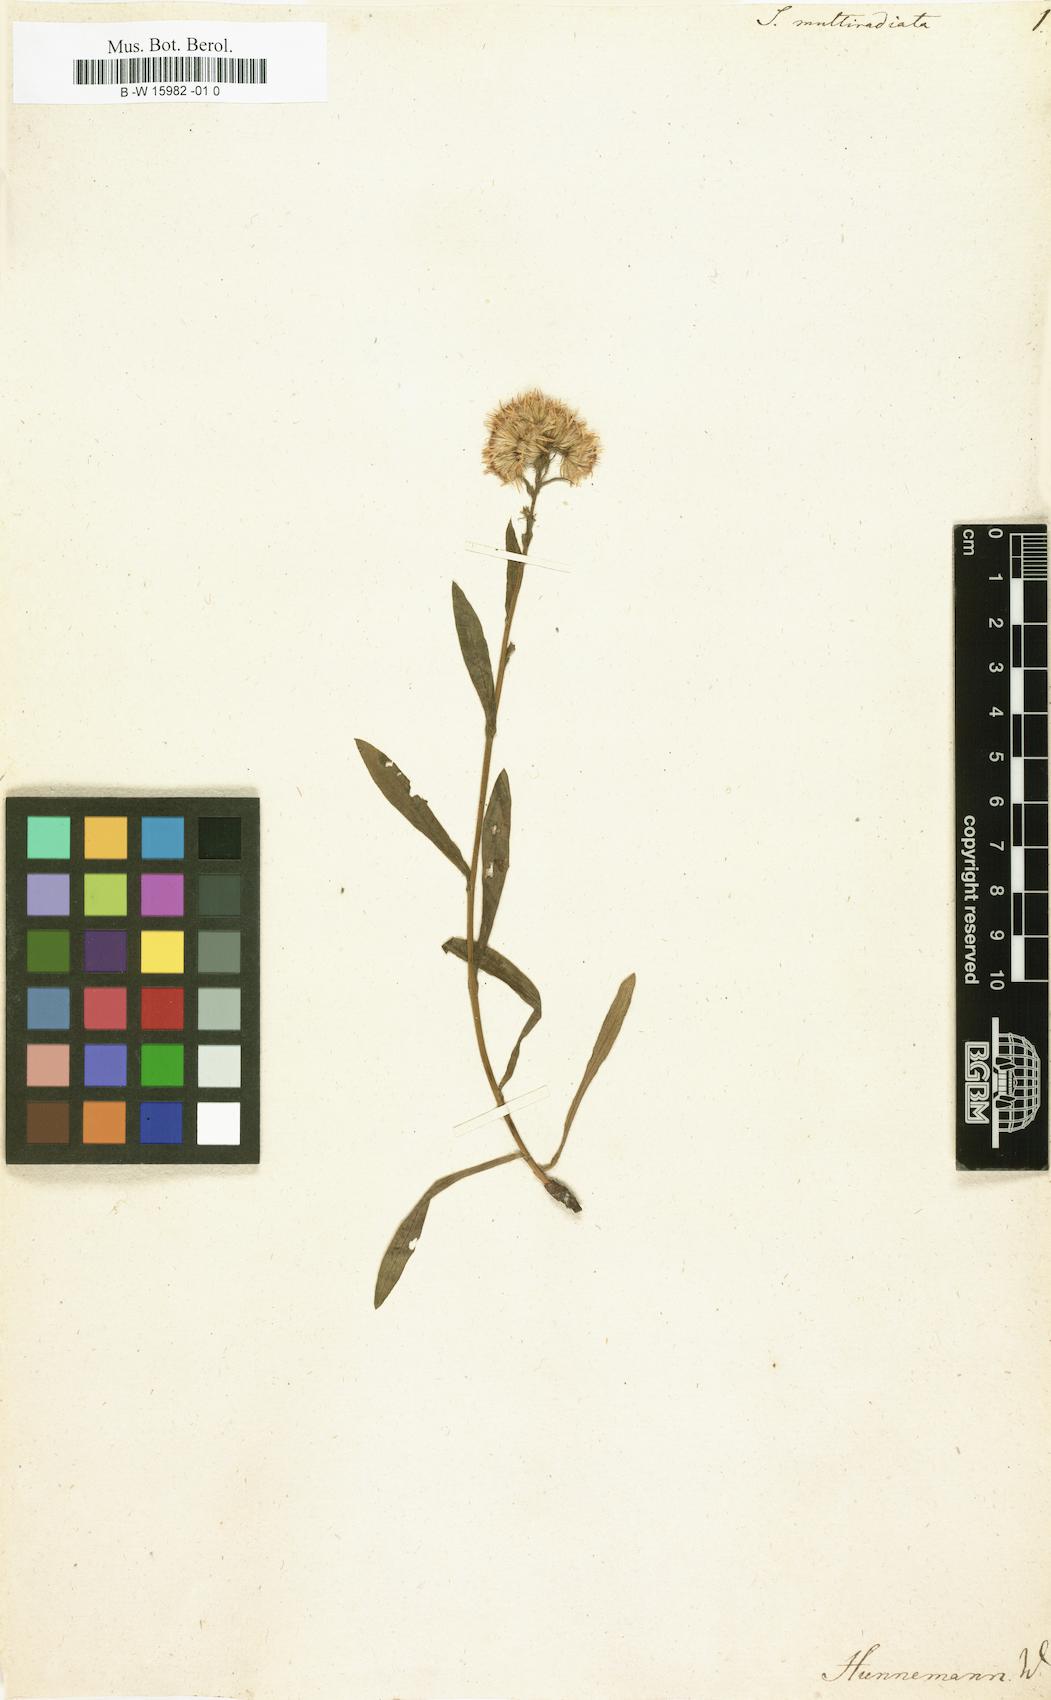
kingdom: Plantae
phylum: Tracheophyta
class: Magnoliopsida
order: Asterales
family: Asteraceae
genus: Solidago
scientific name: Solidago multiradiata
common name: Northern goldenrod
